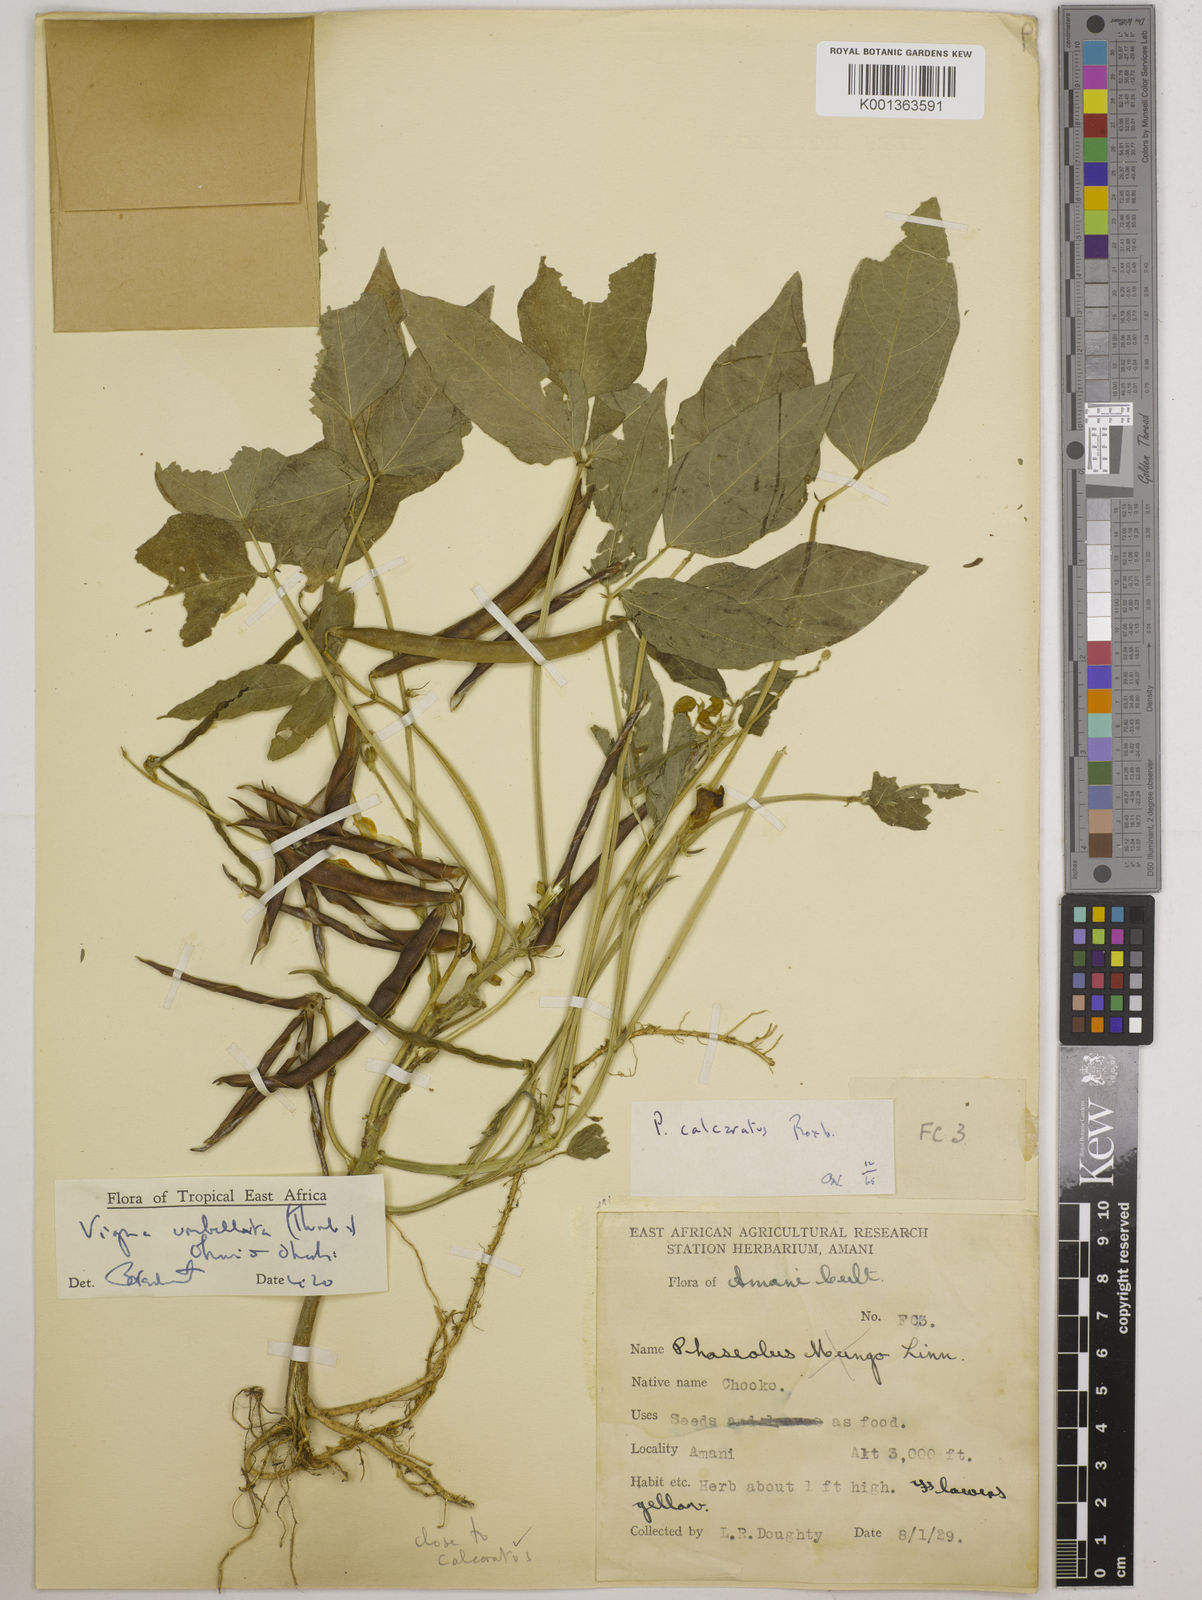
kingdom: Plantae
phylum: Tracheophyta
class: Magnoliopsida
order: Fabales
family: Fabaceae
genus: Vigna
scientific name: Vigna umbellata
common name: Oriental-bean
